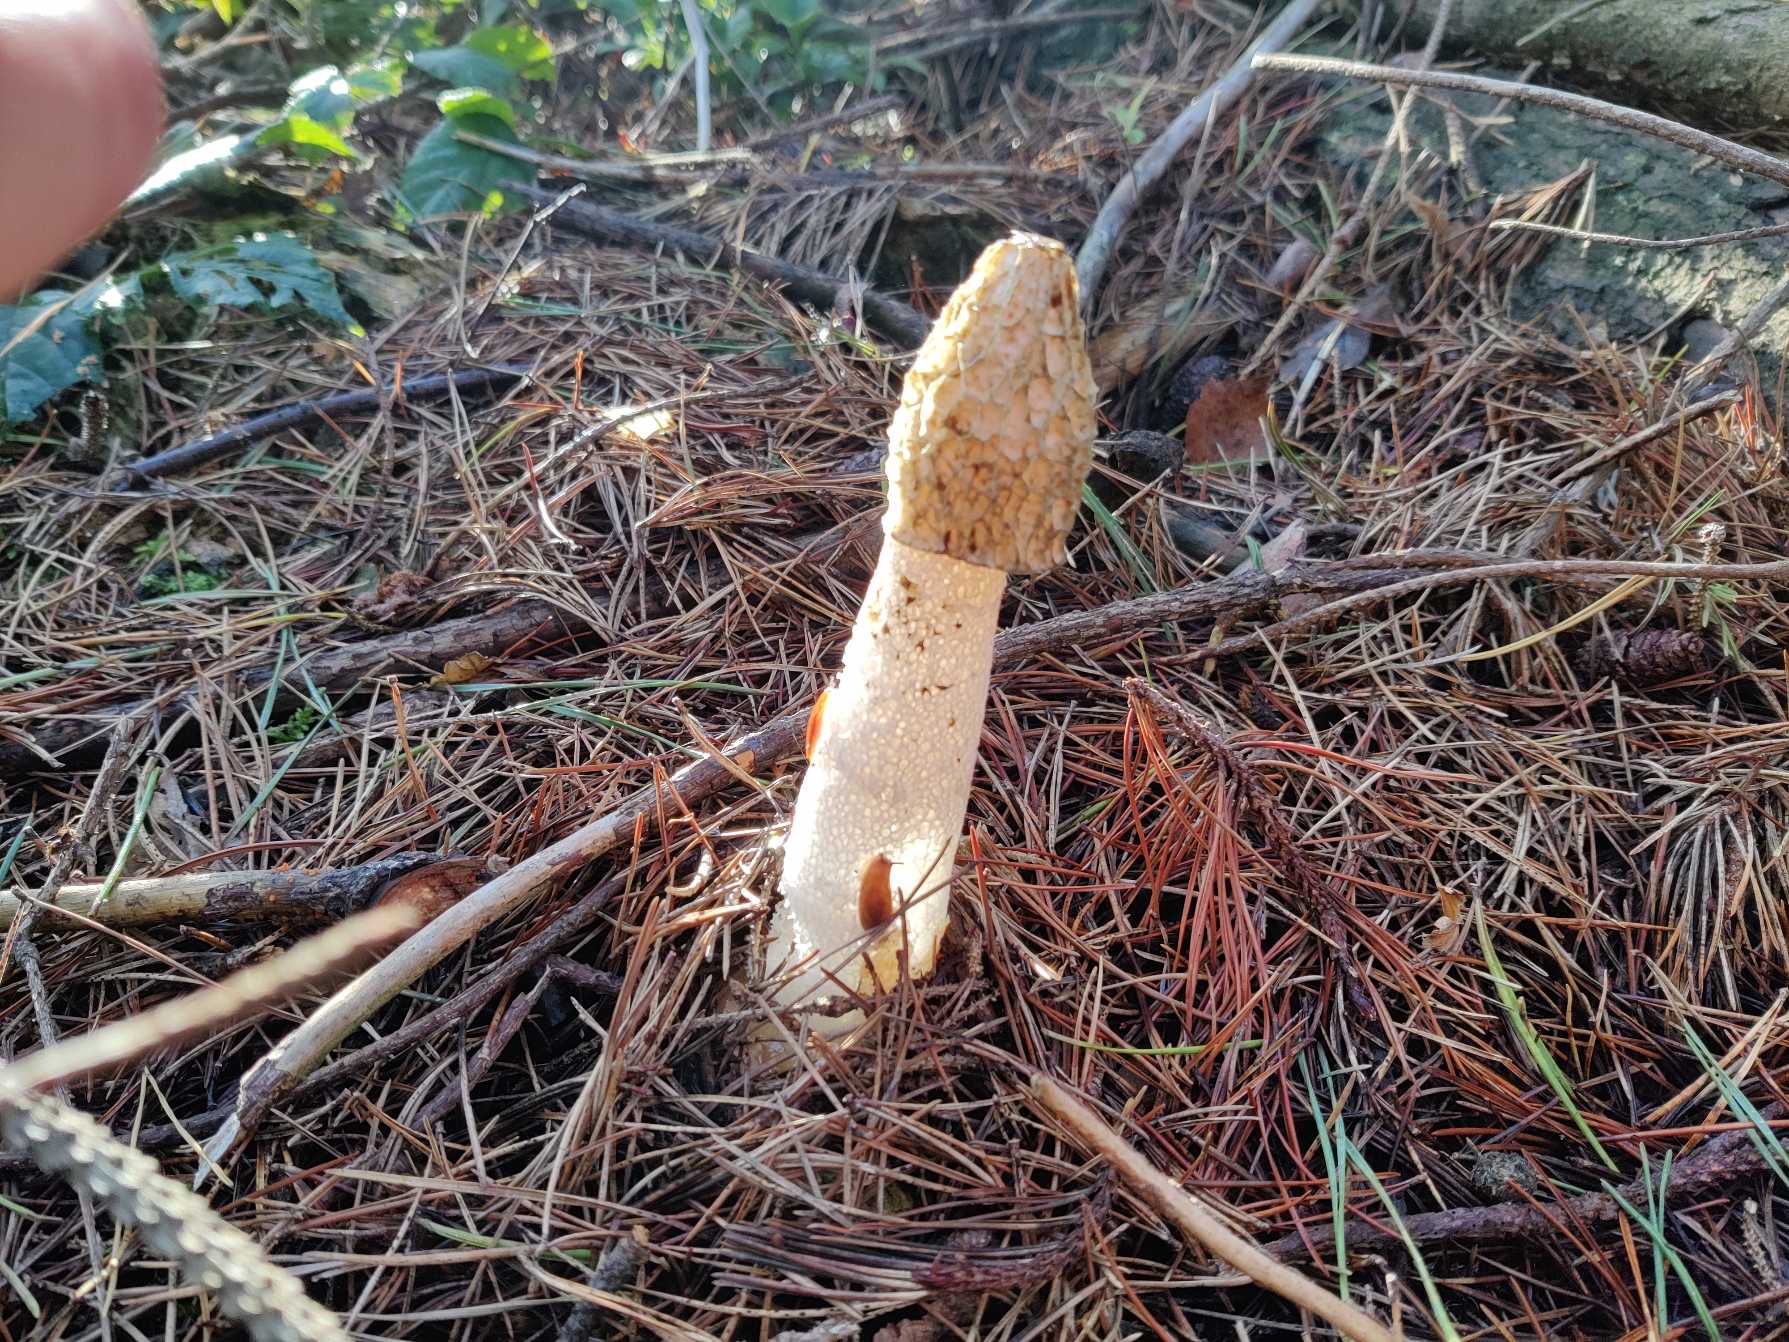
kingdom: Fungi
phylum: Basidiomycota
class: Agaricomycetes
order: Phallales
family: Phallaceae
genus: Phallus
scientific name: Phallus impudicus
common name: Almindelig stinksvamp
